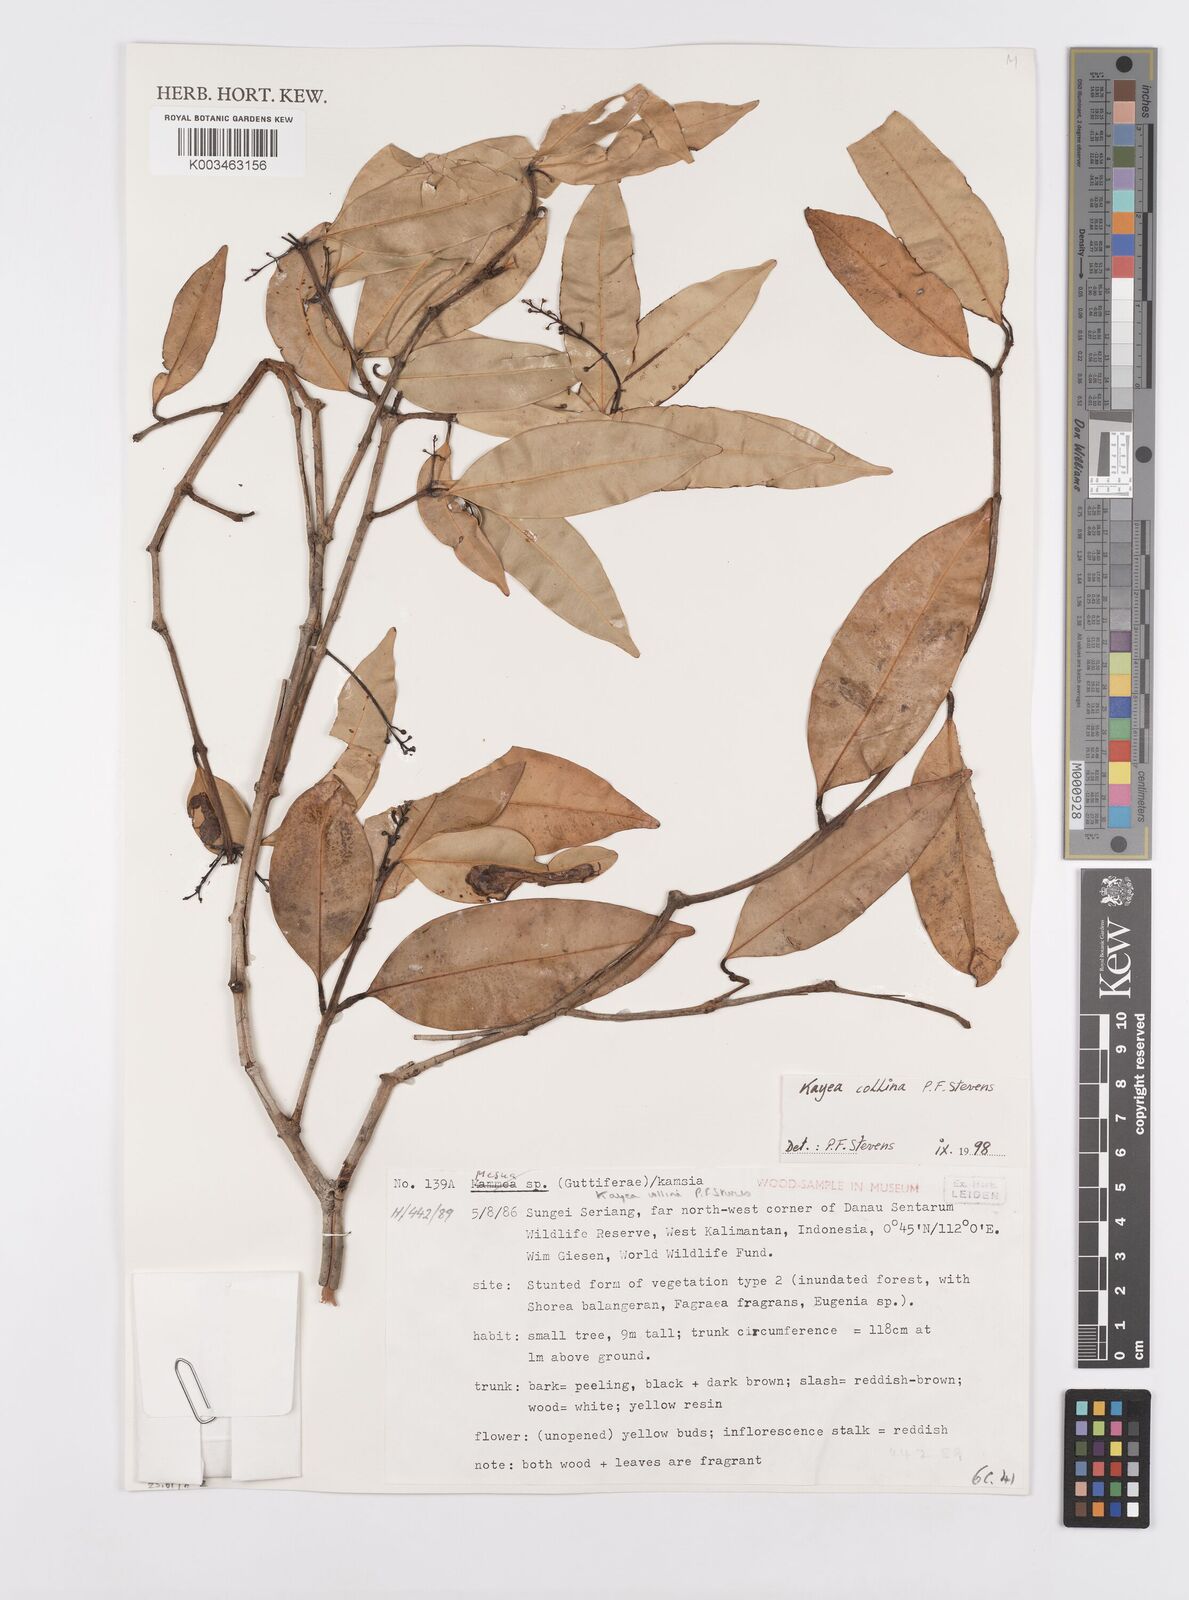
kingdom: Plantae
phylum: Tracheophyta
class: Magnoliopsida
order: Malpighiales
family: Calophyllaceae
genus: Kayea
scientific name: Kayea
